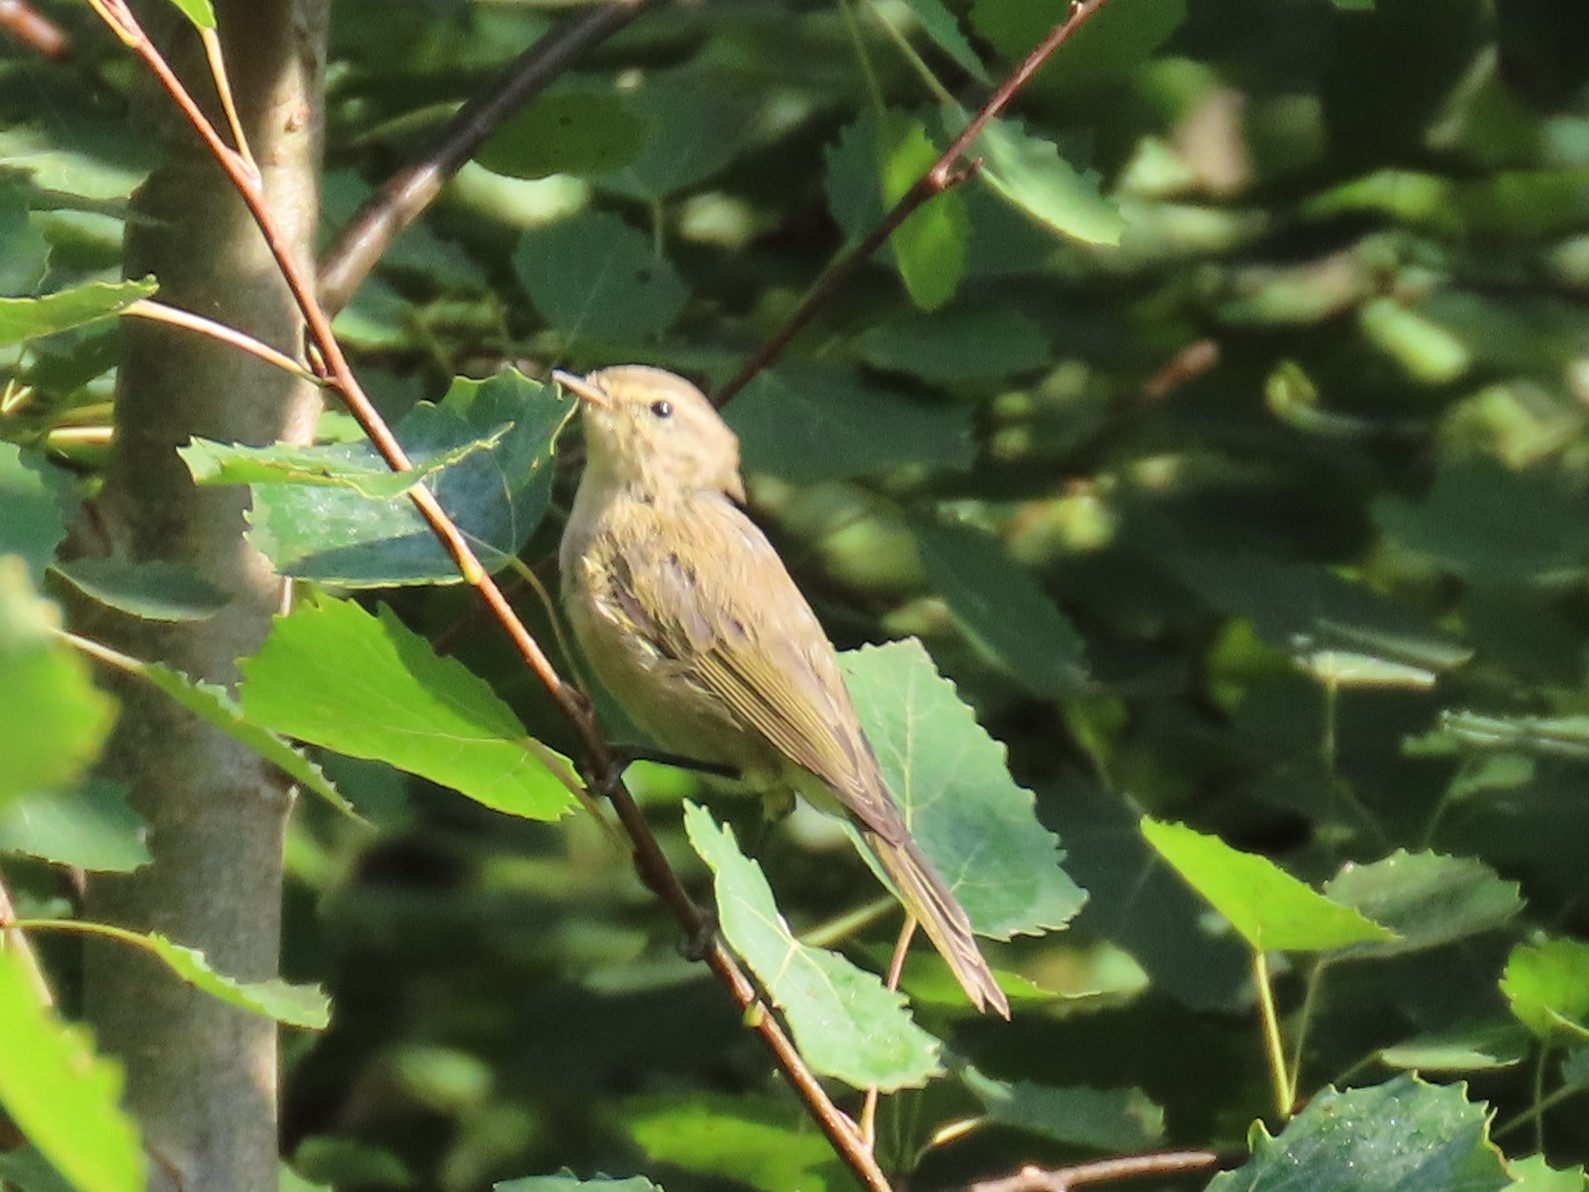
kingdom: Animalia
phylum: Chordata
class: Aves
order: Passeriformes
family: Phylloscopidae
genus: Phylloscopus
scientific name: Phylloscopus collybita
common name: Gransanger
